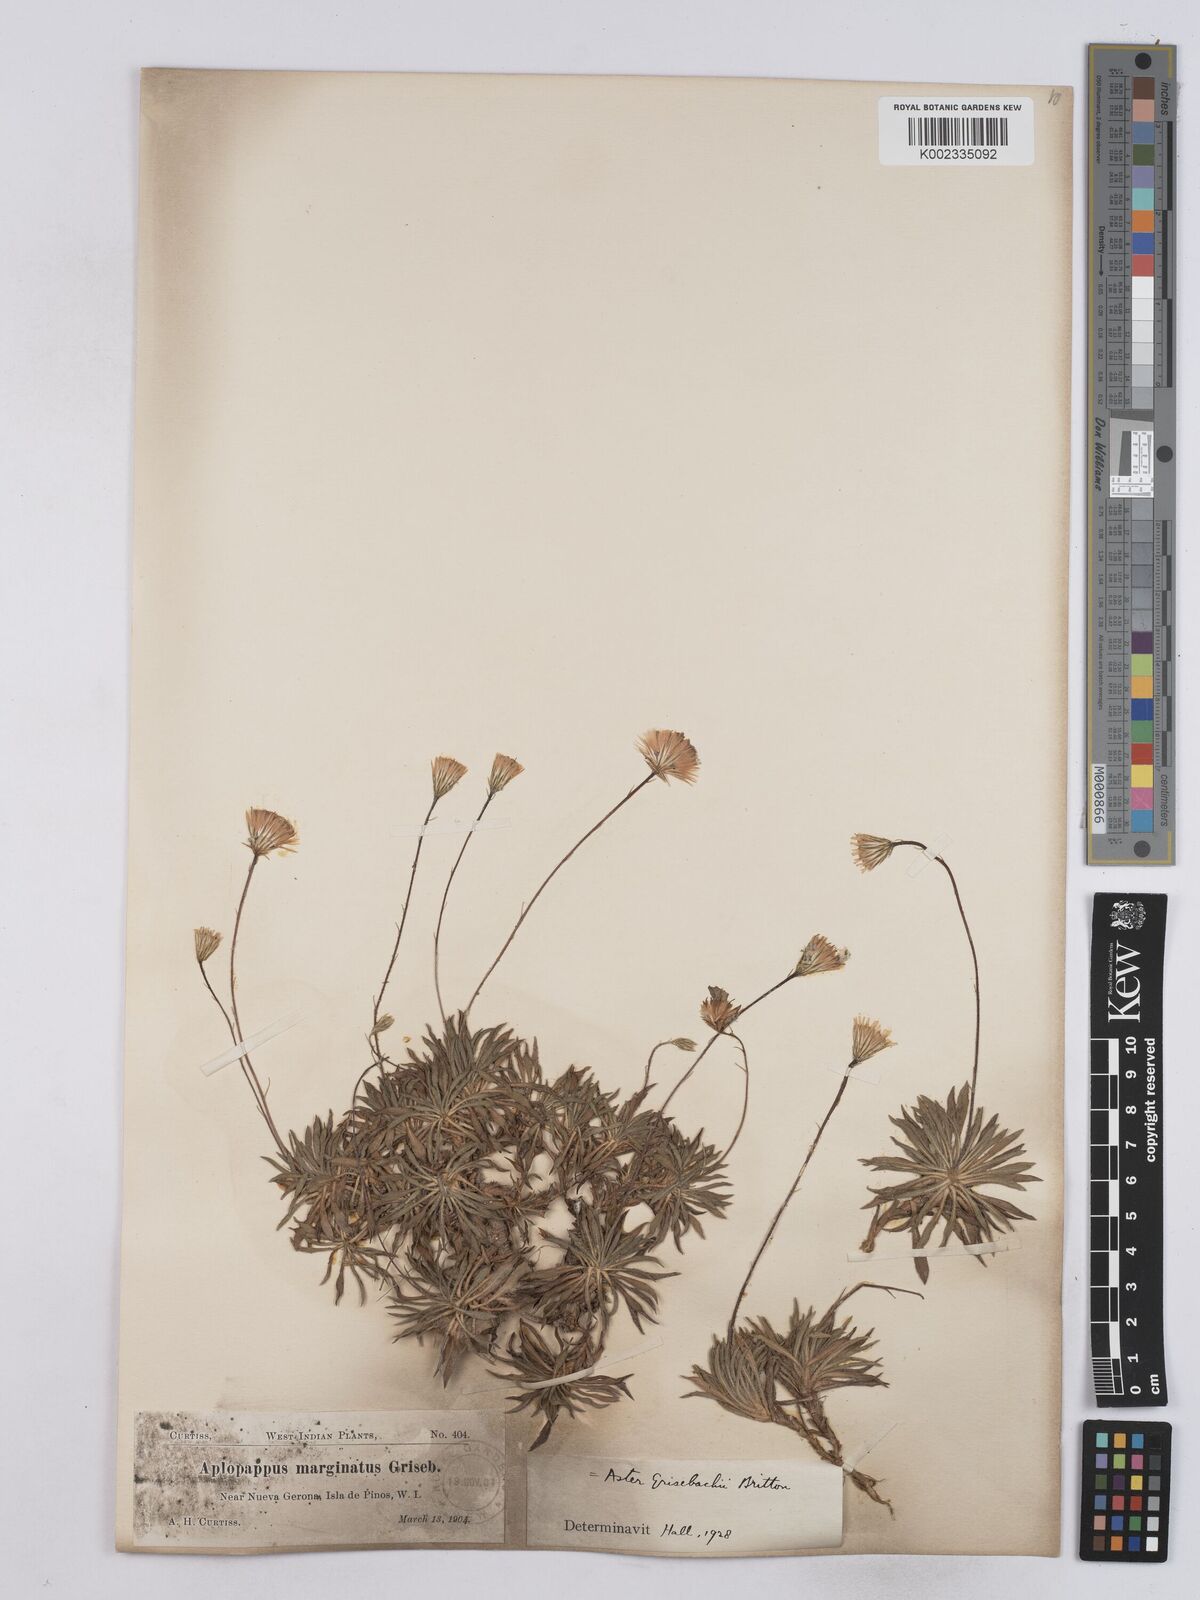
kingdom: Plantae
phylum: Tracheophyta
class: Magnoliopsida
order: Asterales
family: Asteraceae
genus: Neja
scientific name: Neja marginata
